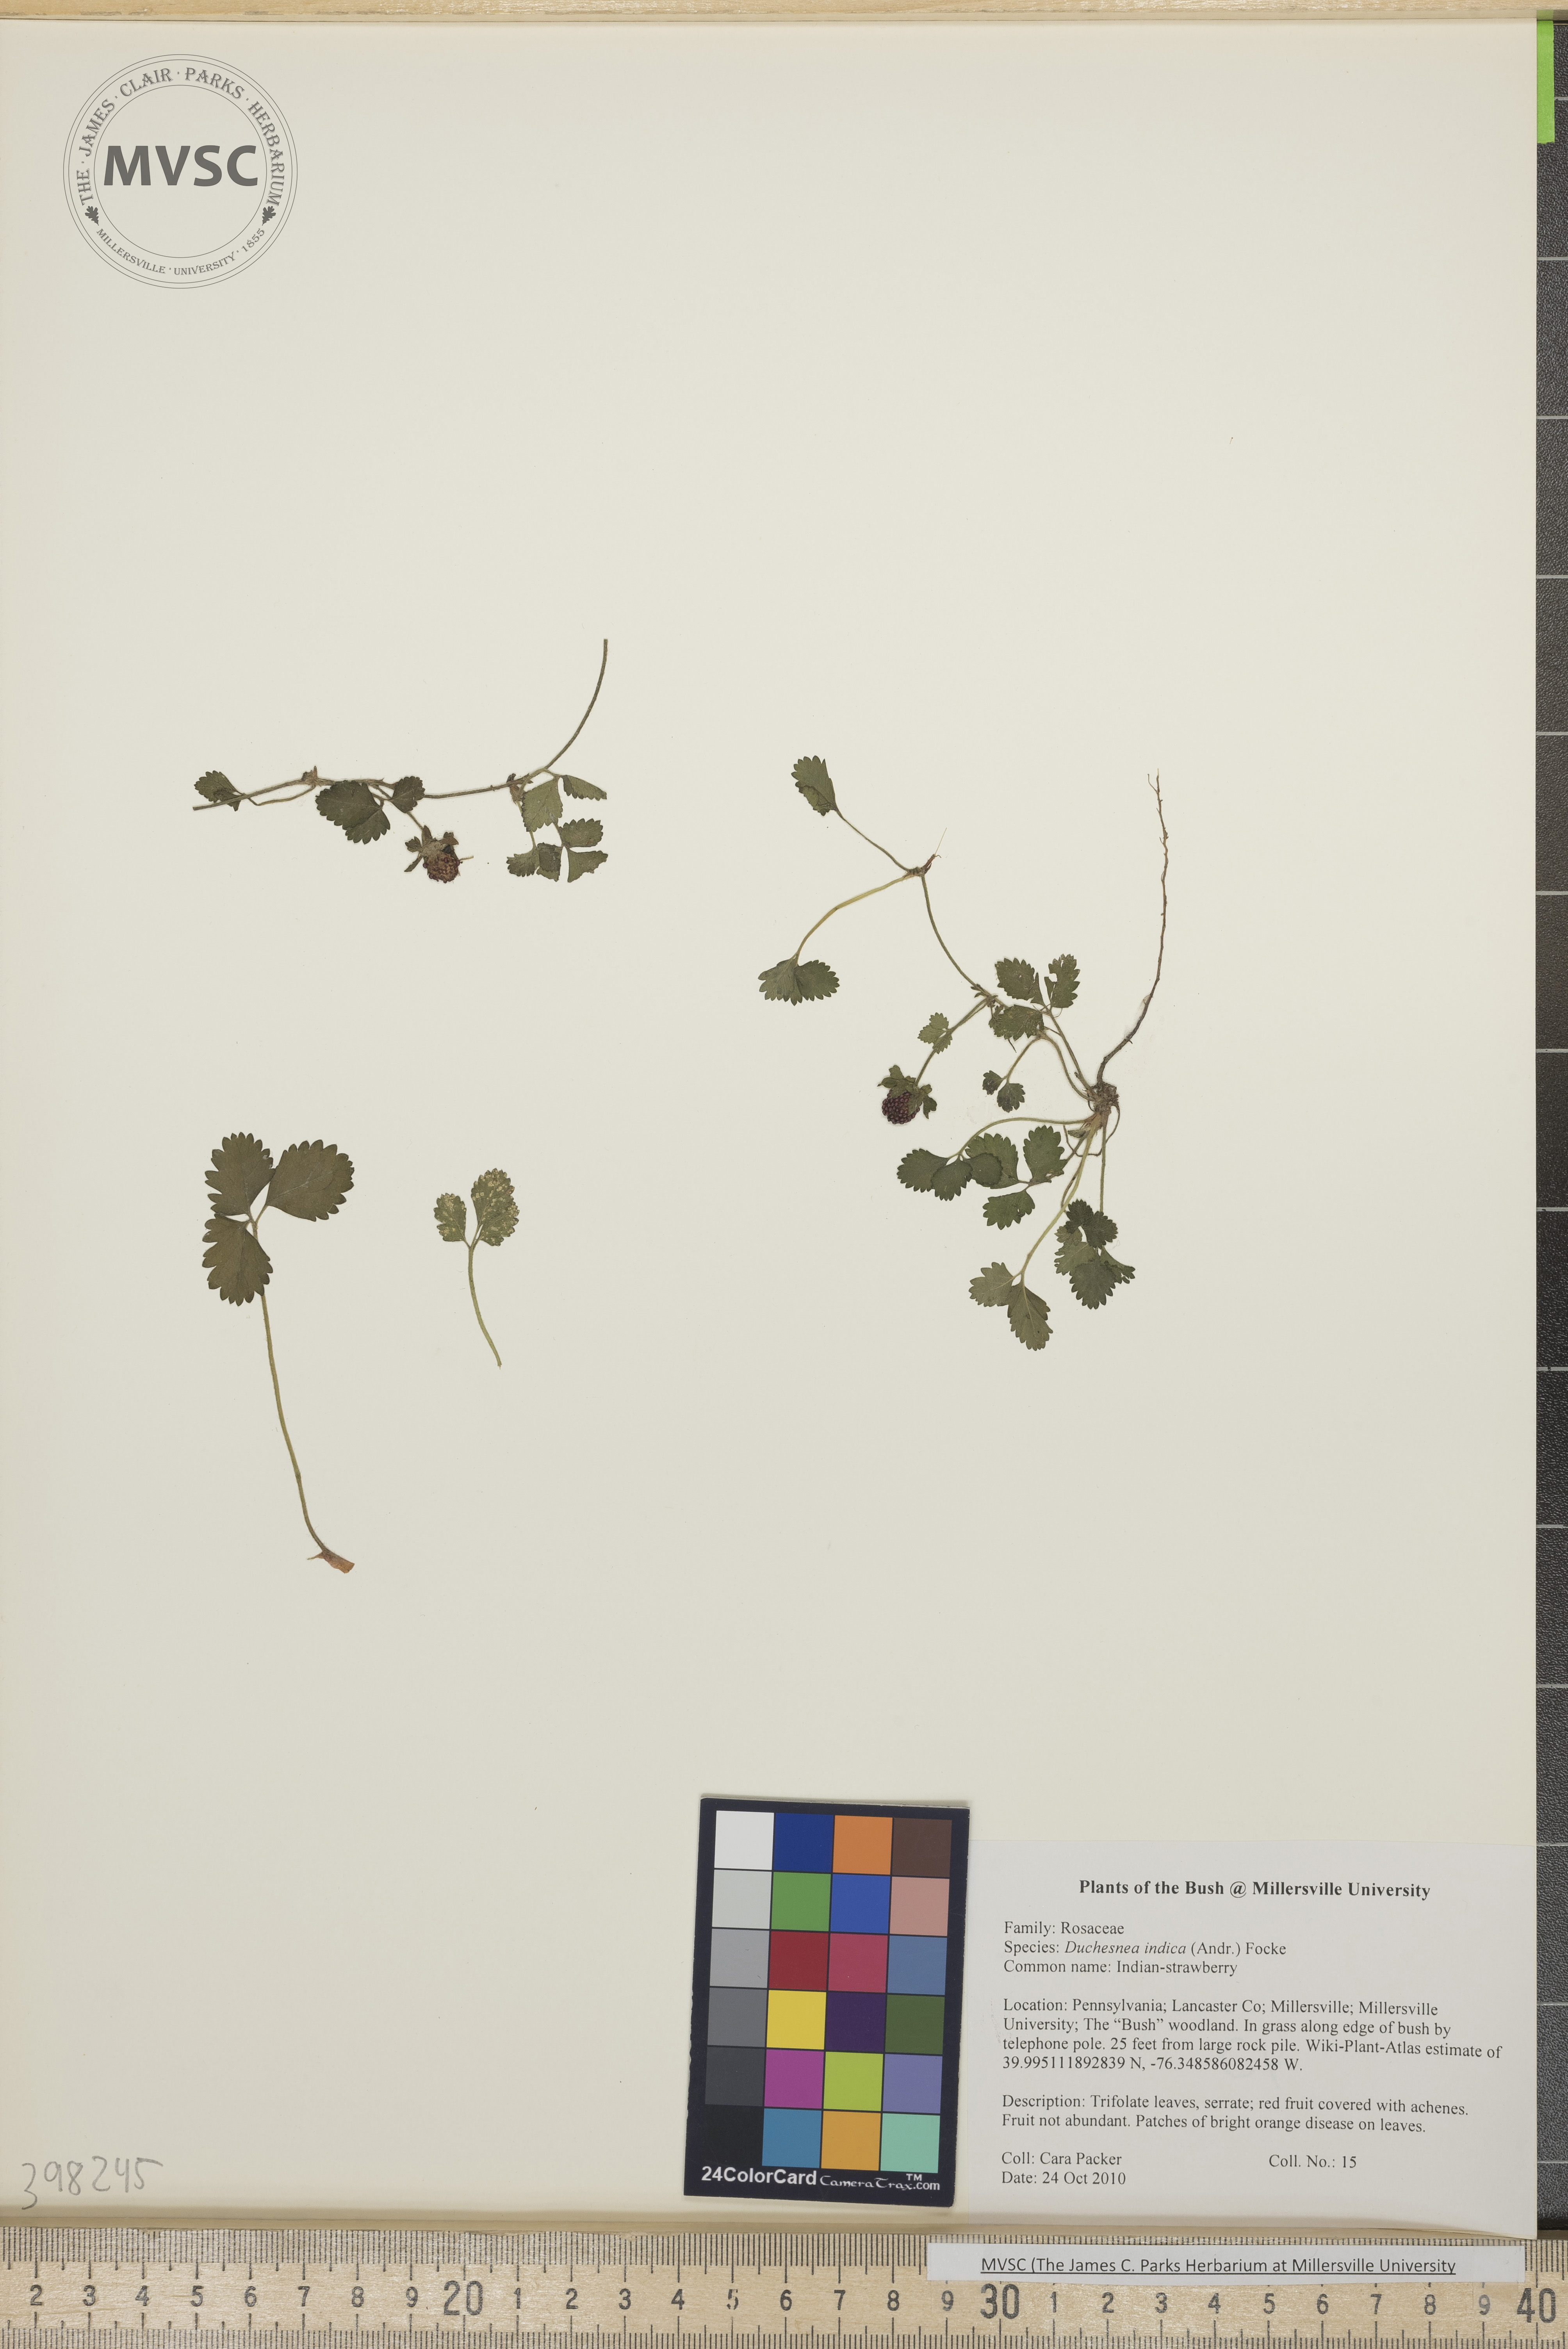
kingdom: Plantae
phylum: Tracheophyta
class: Magnoliopsida
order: Rosales
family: Rosaceae
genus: Potentilla
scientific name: Potentilla indica
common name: Indian strawberry
